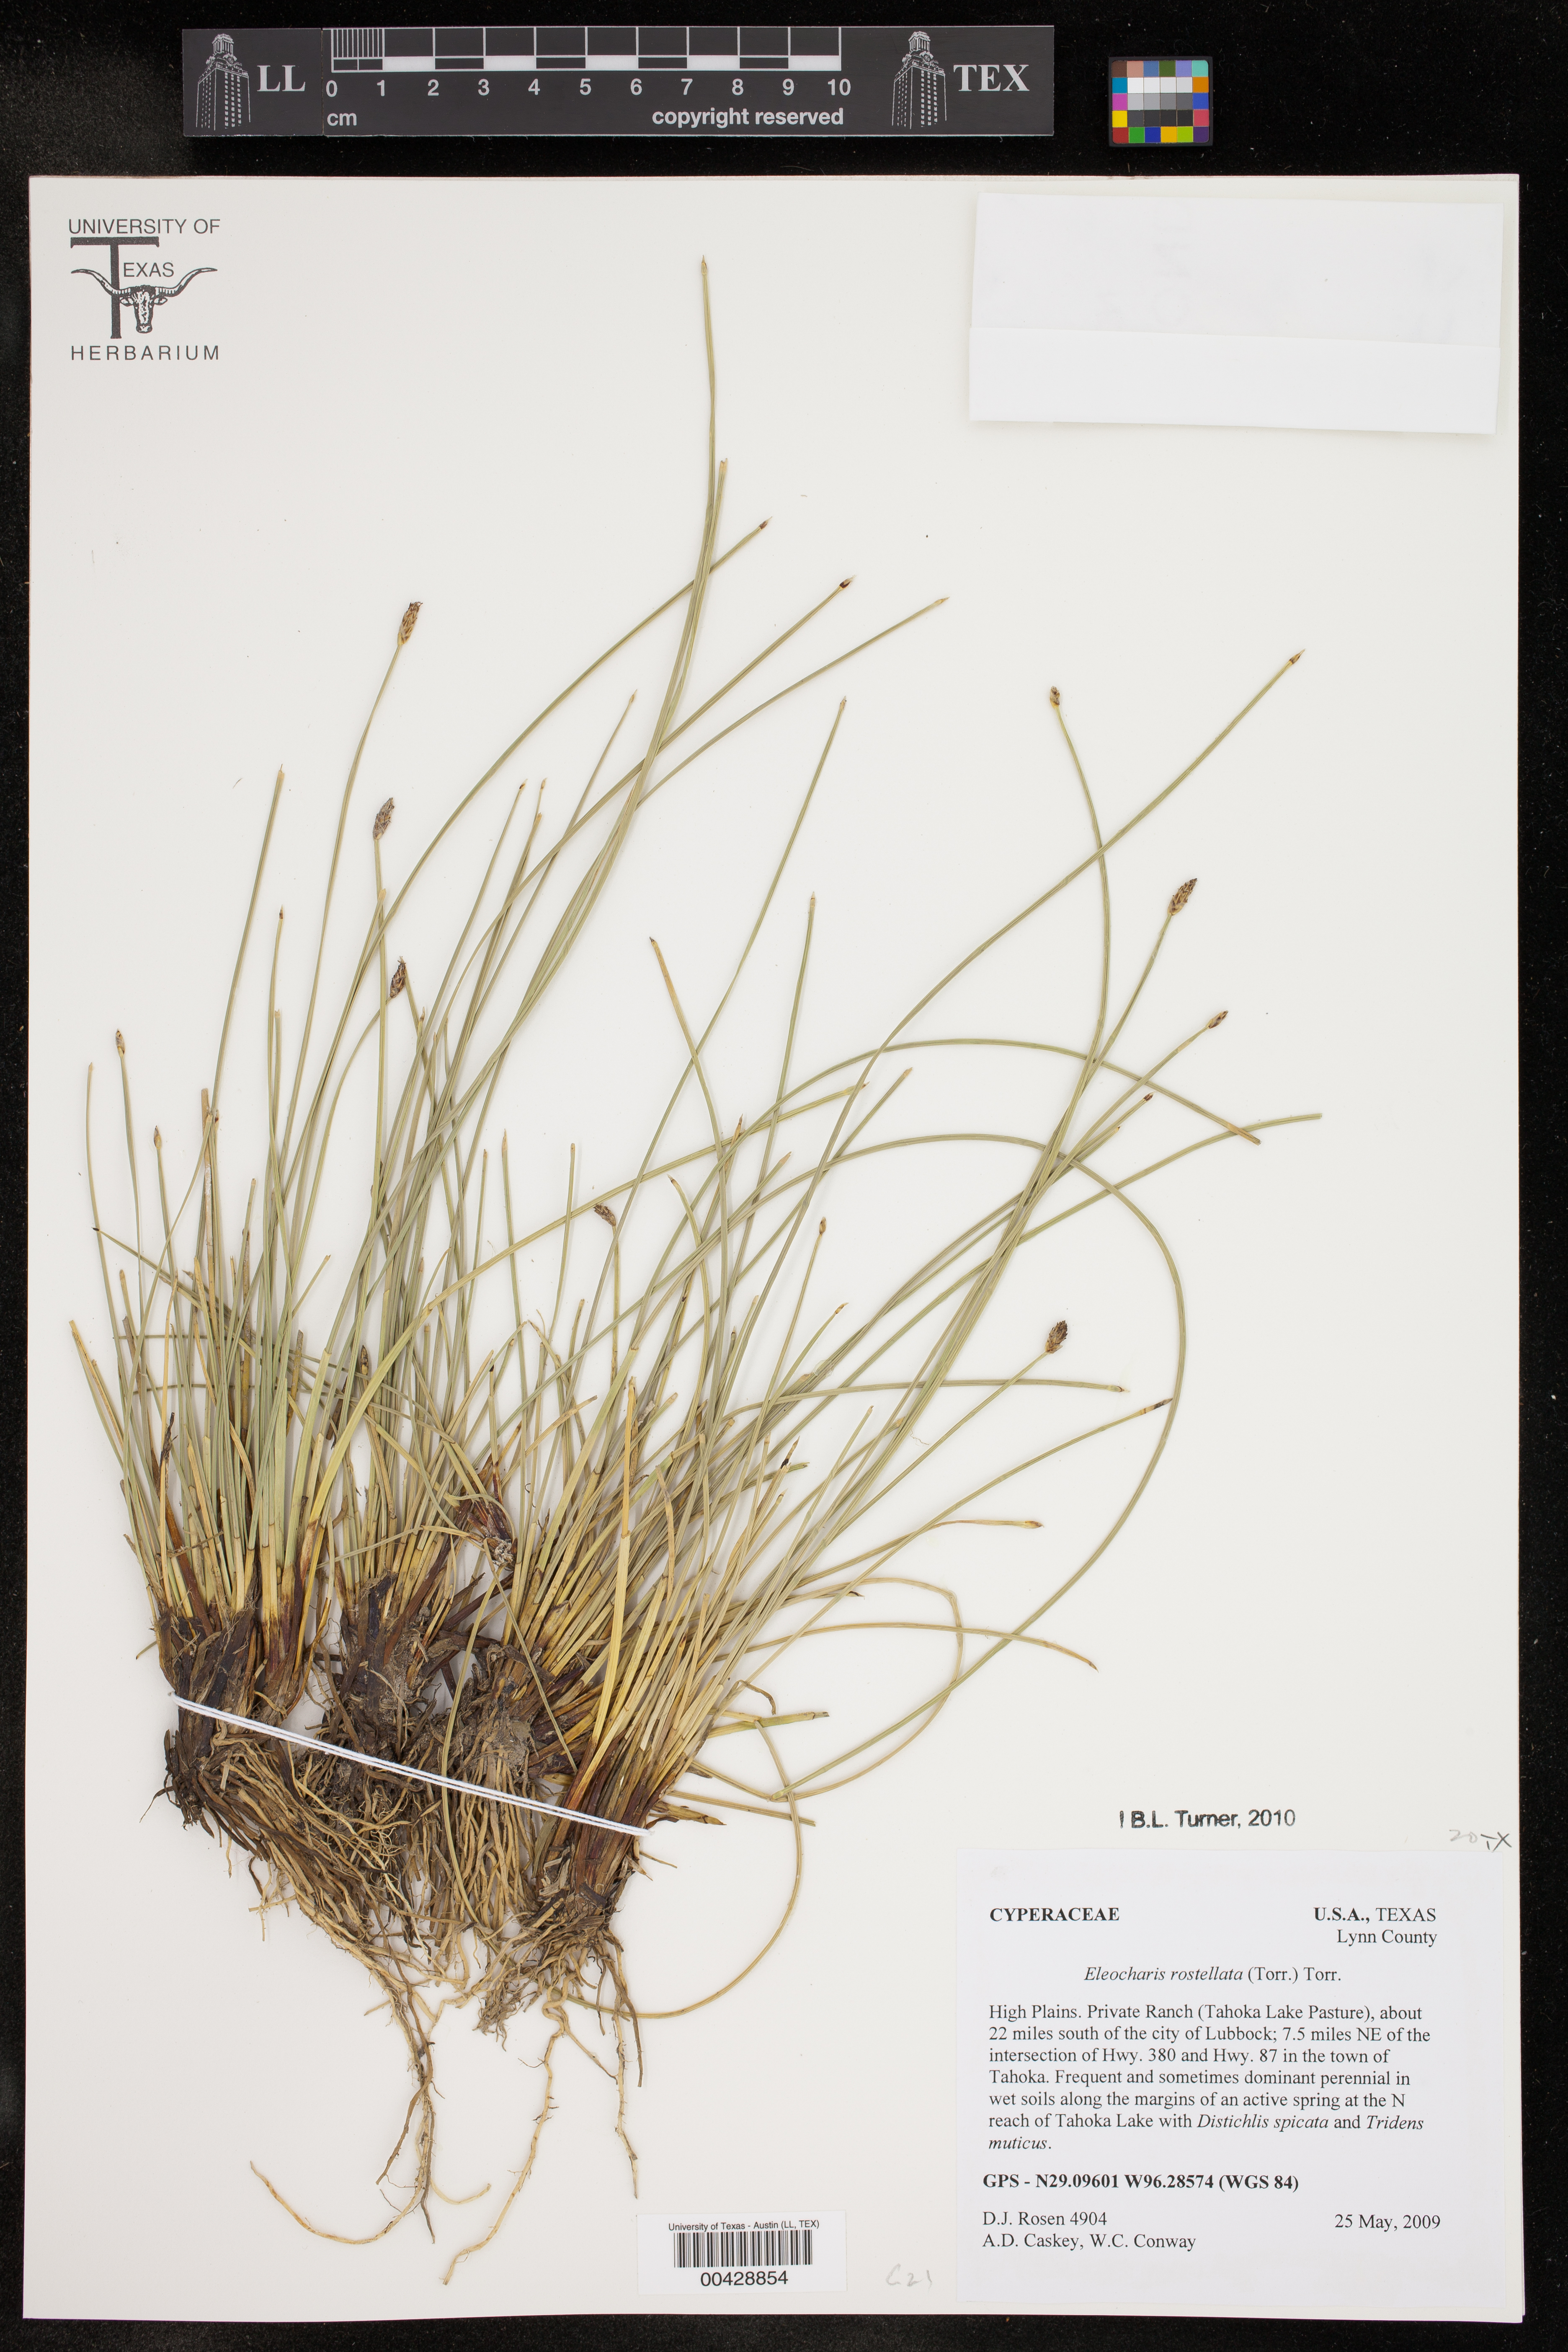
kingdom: Plantae
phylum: Tracheophyta
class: Liliopsida
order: Poales
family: Cyperaceae
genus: Eleocharis
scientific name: Eleocharis rostellata
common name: Walking sedge
